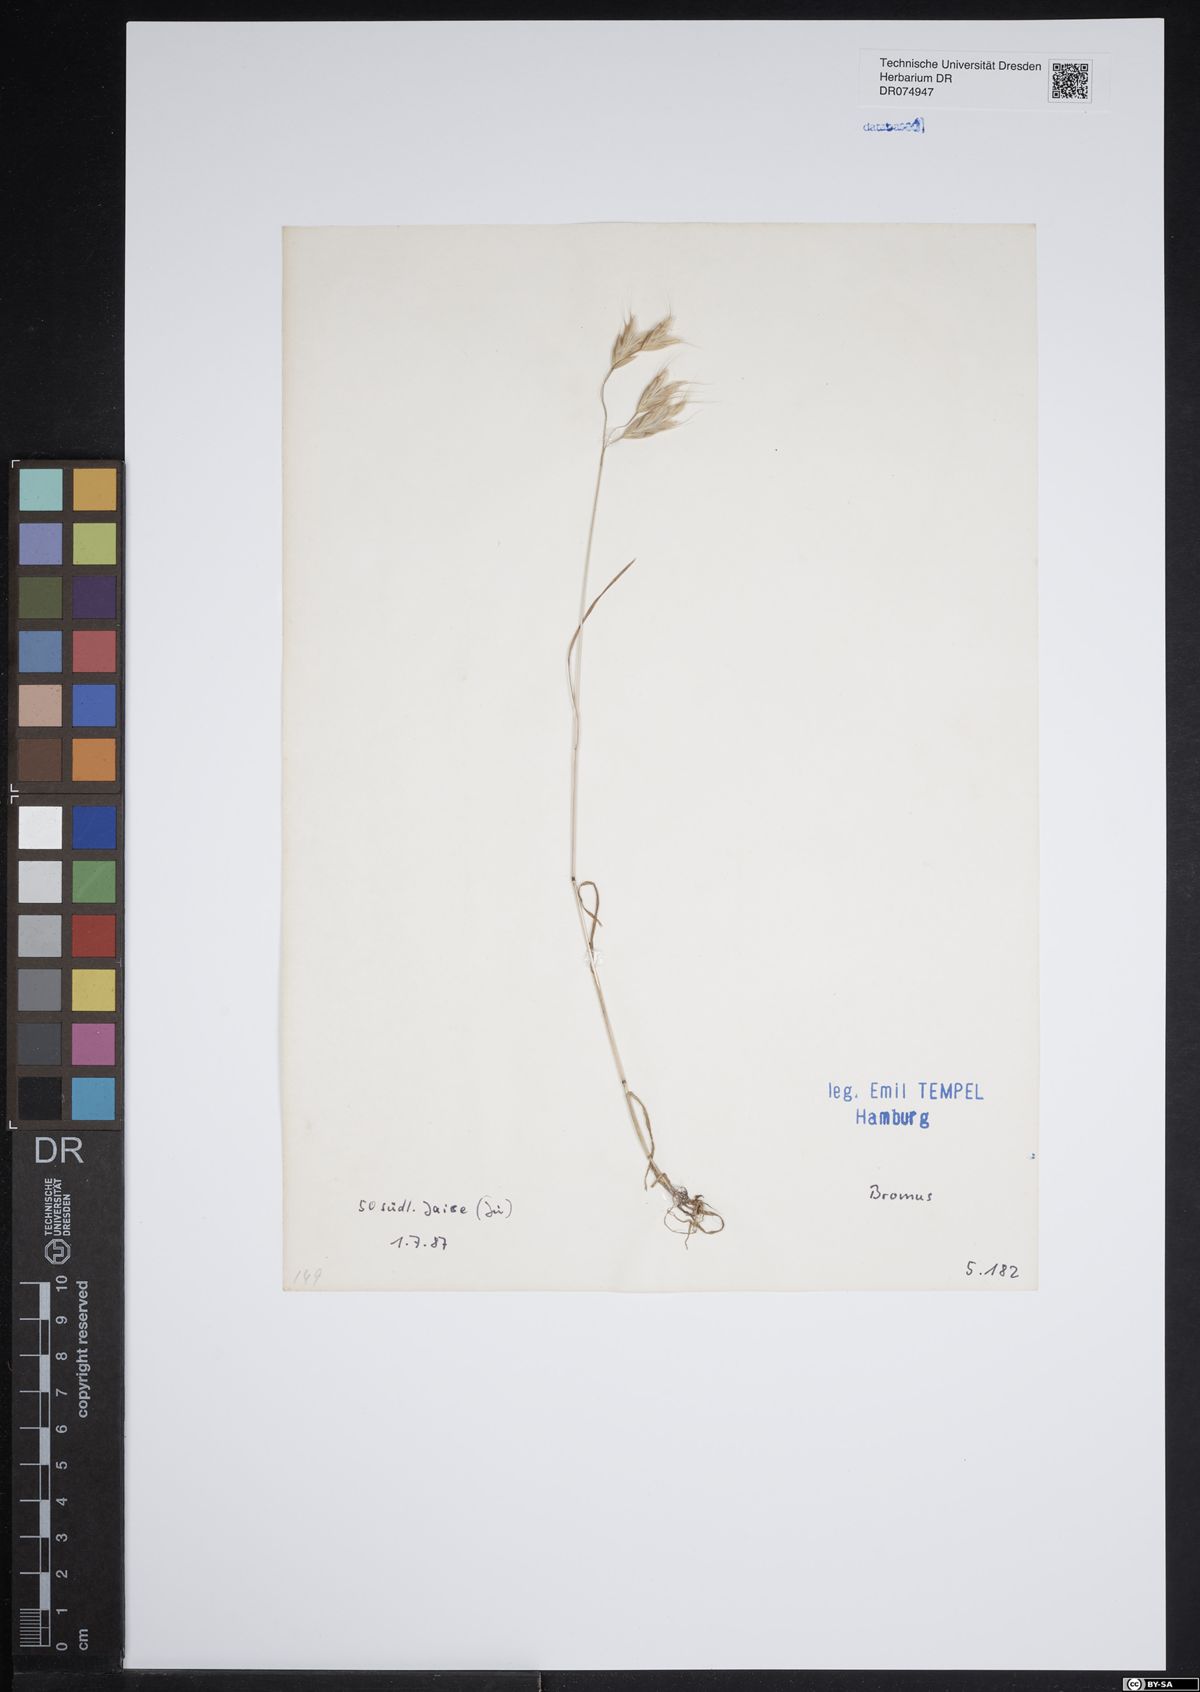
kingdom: Plantae
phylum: Tracheophyta
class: Liliopsida
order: Poales
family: Poaceae
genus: Bromus
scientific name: Bromus
